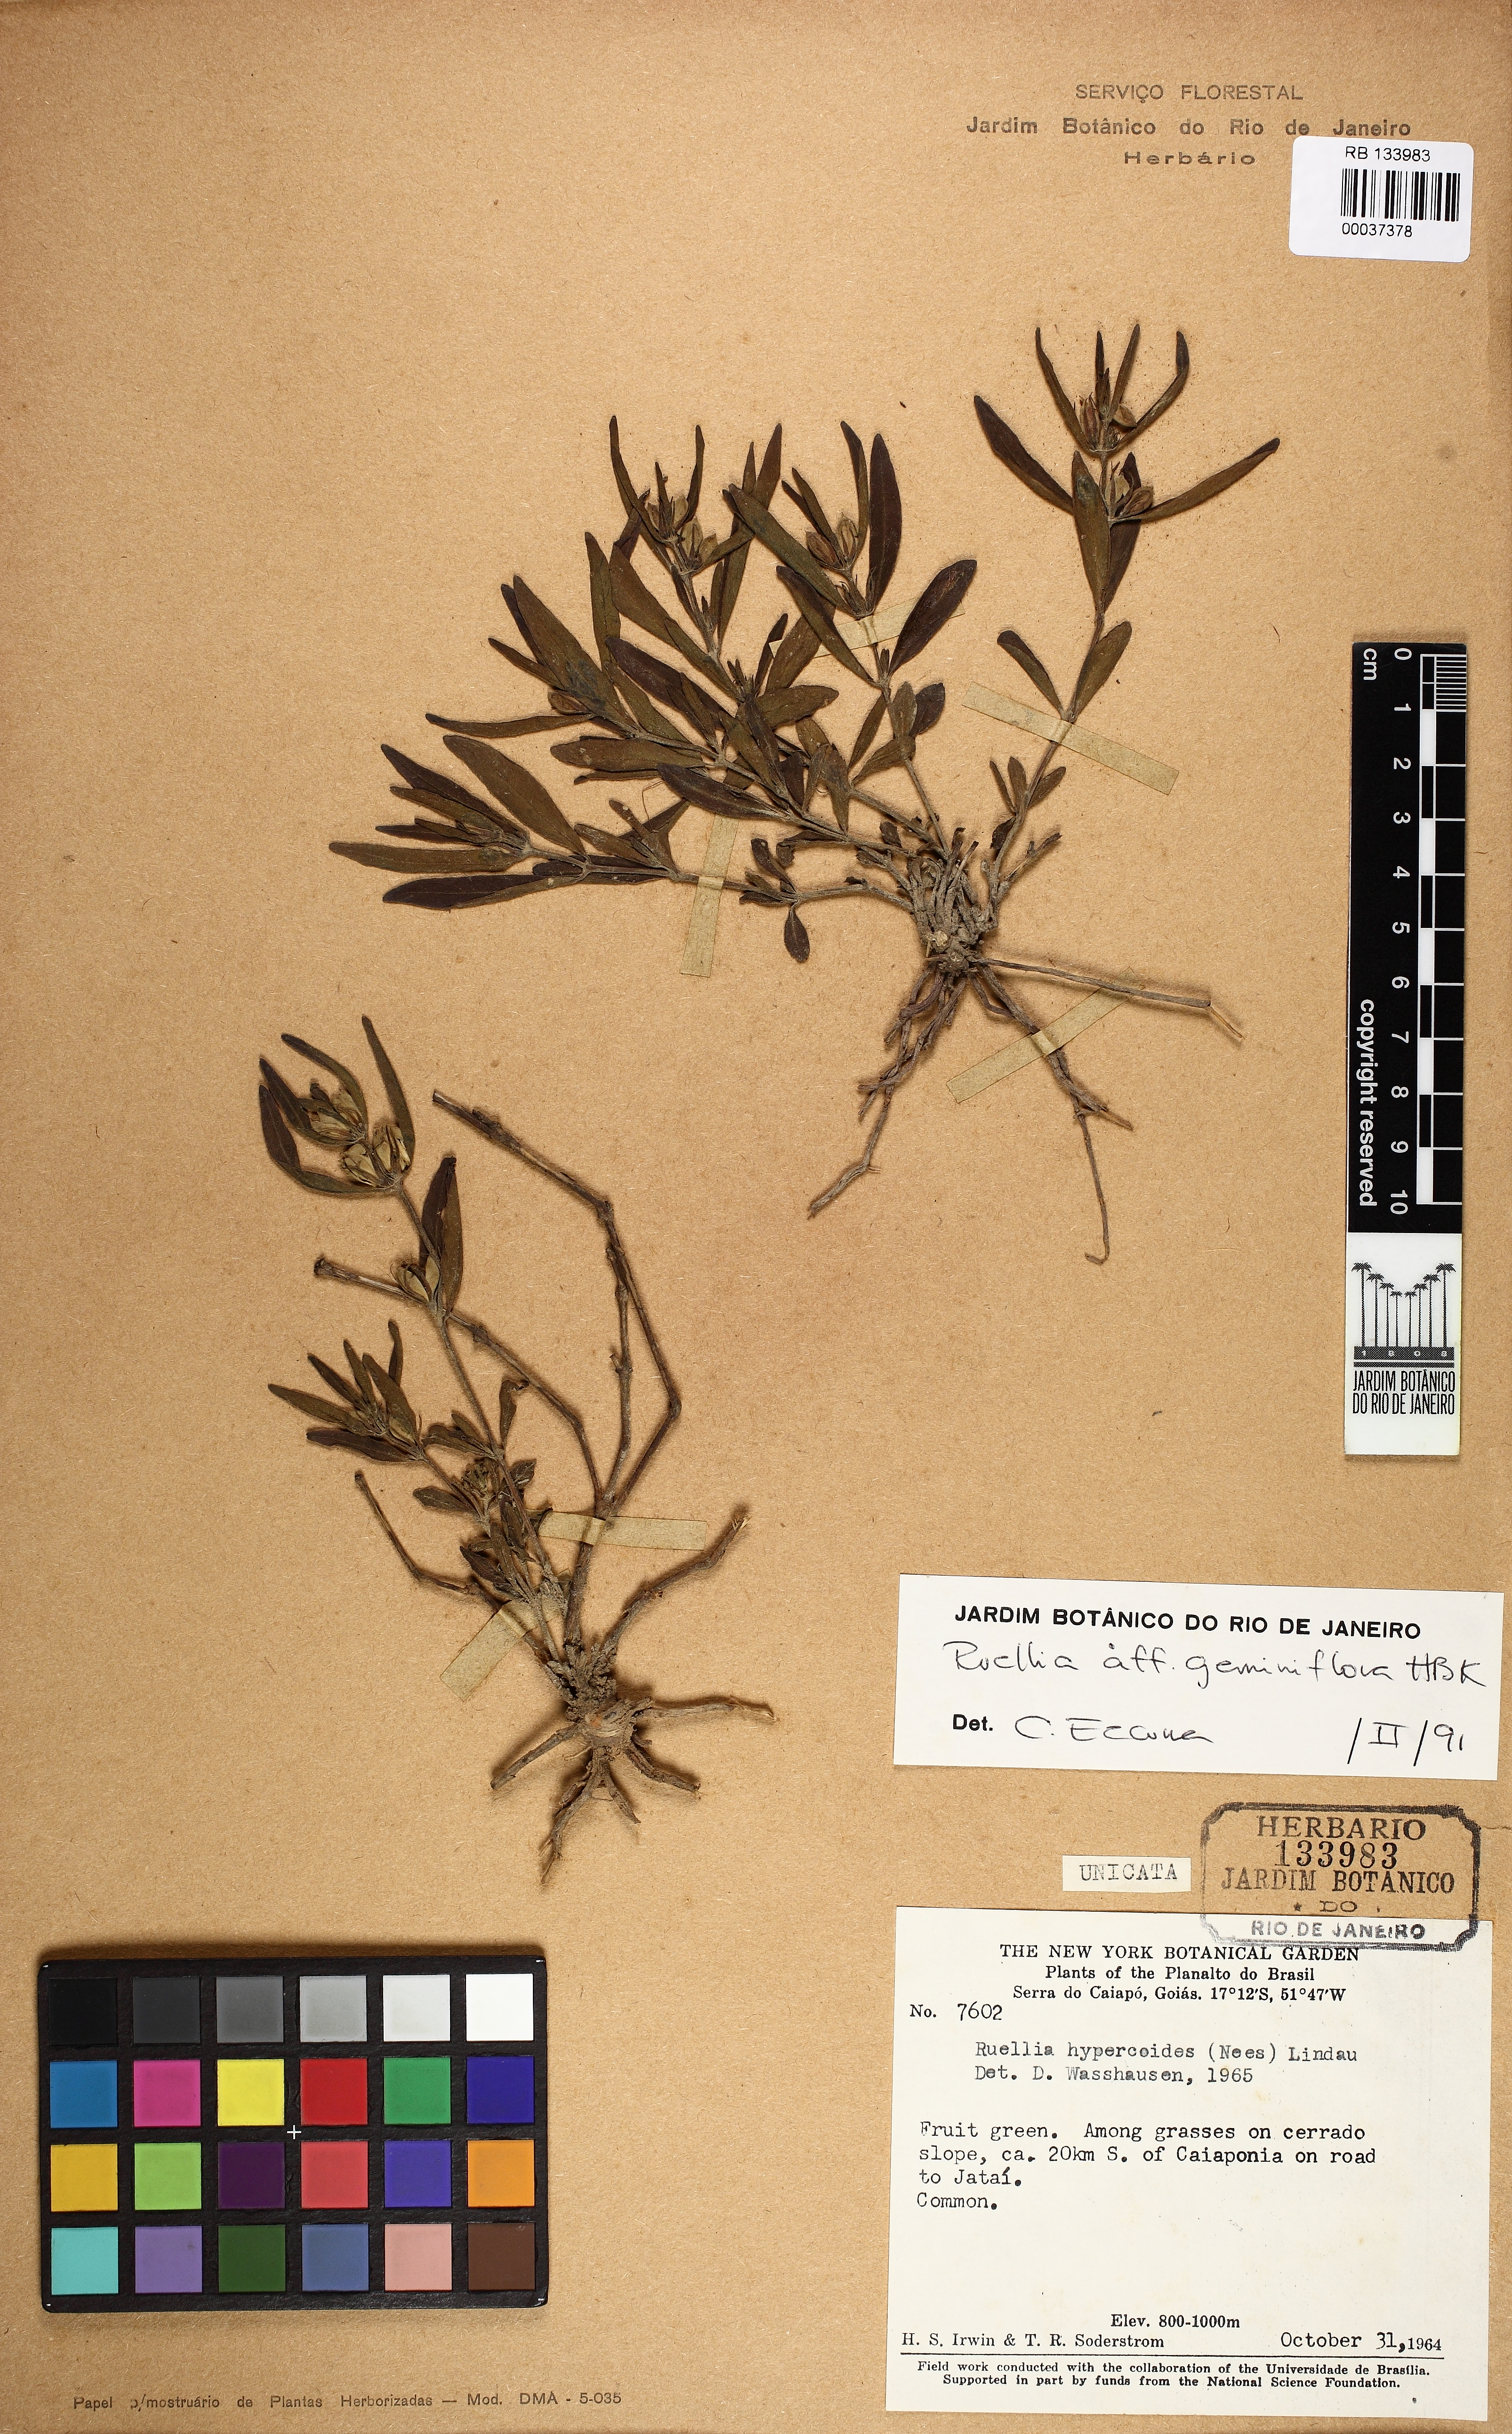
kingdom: Plantae
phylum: Tracheophyta
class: Magnoliopsida
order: Lamiales
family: Acanthaceae
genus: Ruellia
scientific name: Ruellia geminiflora
